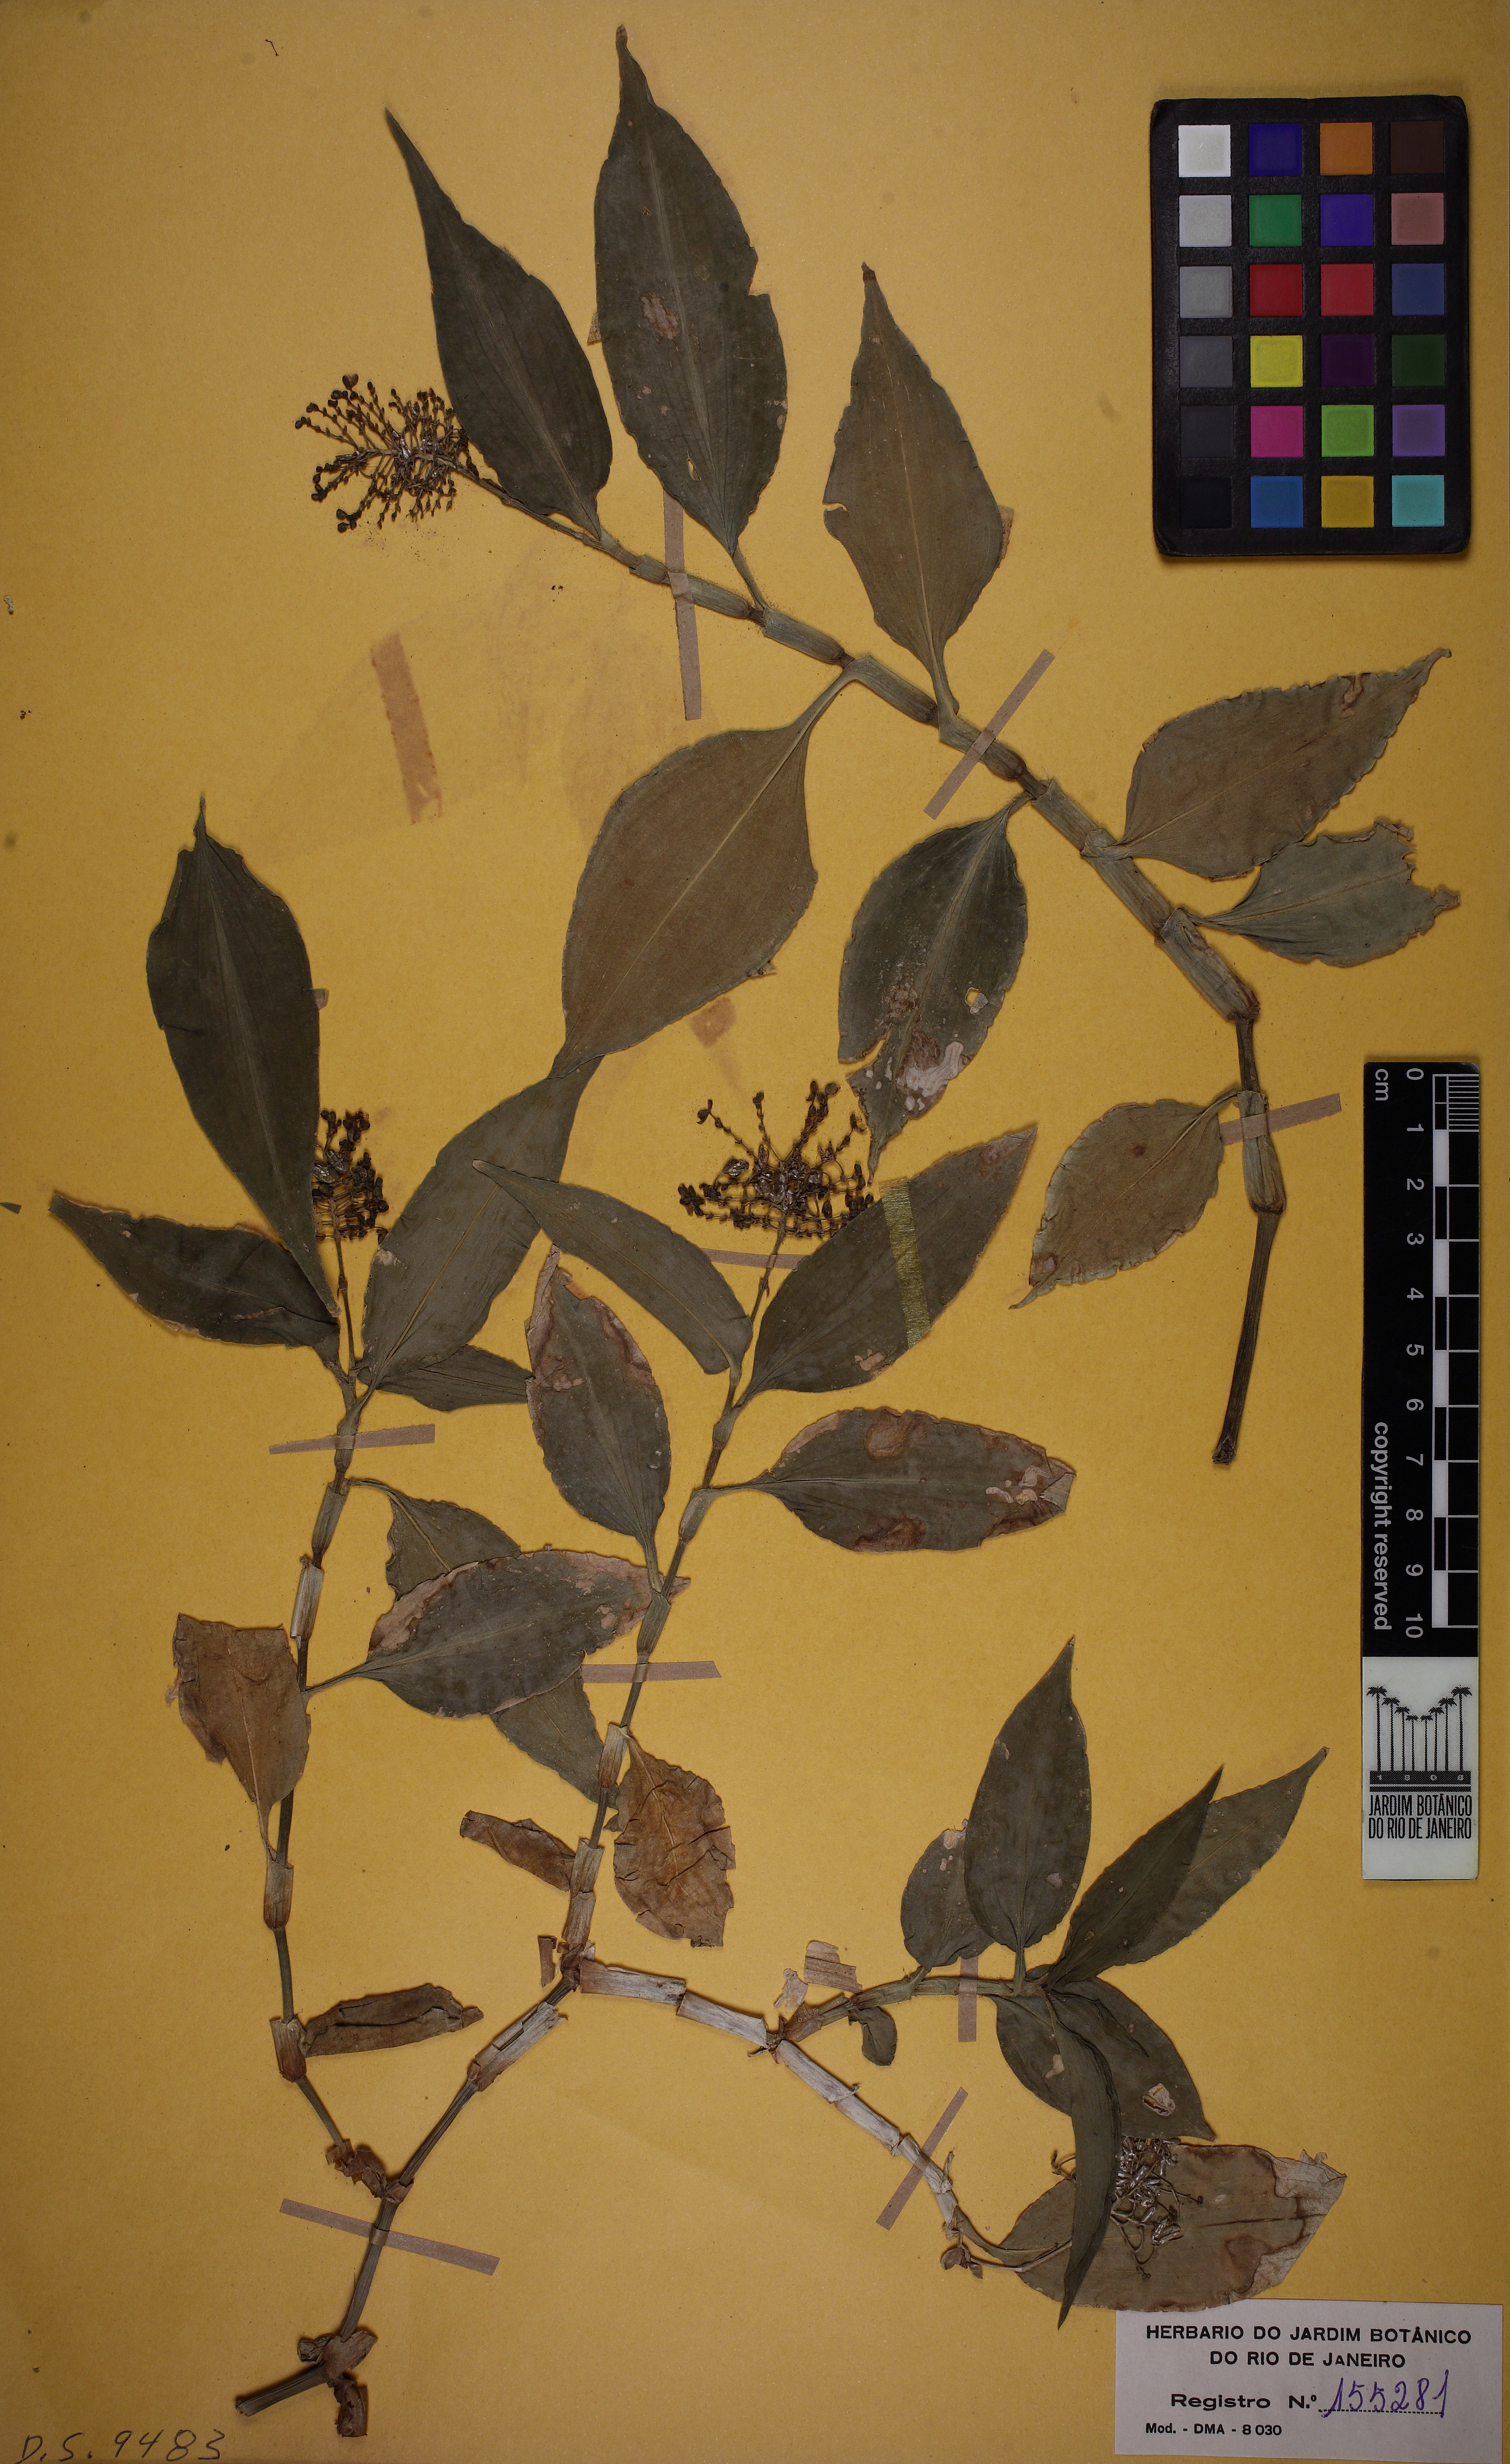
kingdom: Plantae
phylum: Tracheophyta
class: Liliopsida
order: Commelinales
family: Commelinaceae
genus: Aneilema
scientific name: Aneilema beniniense
